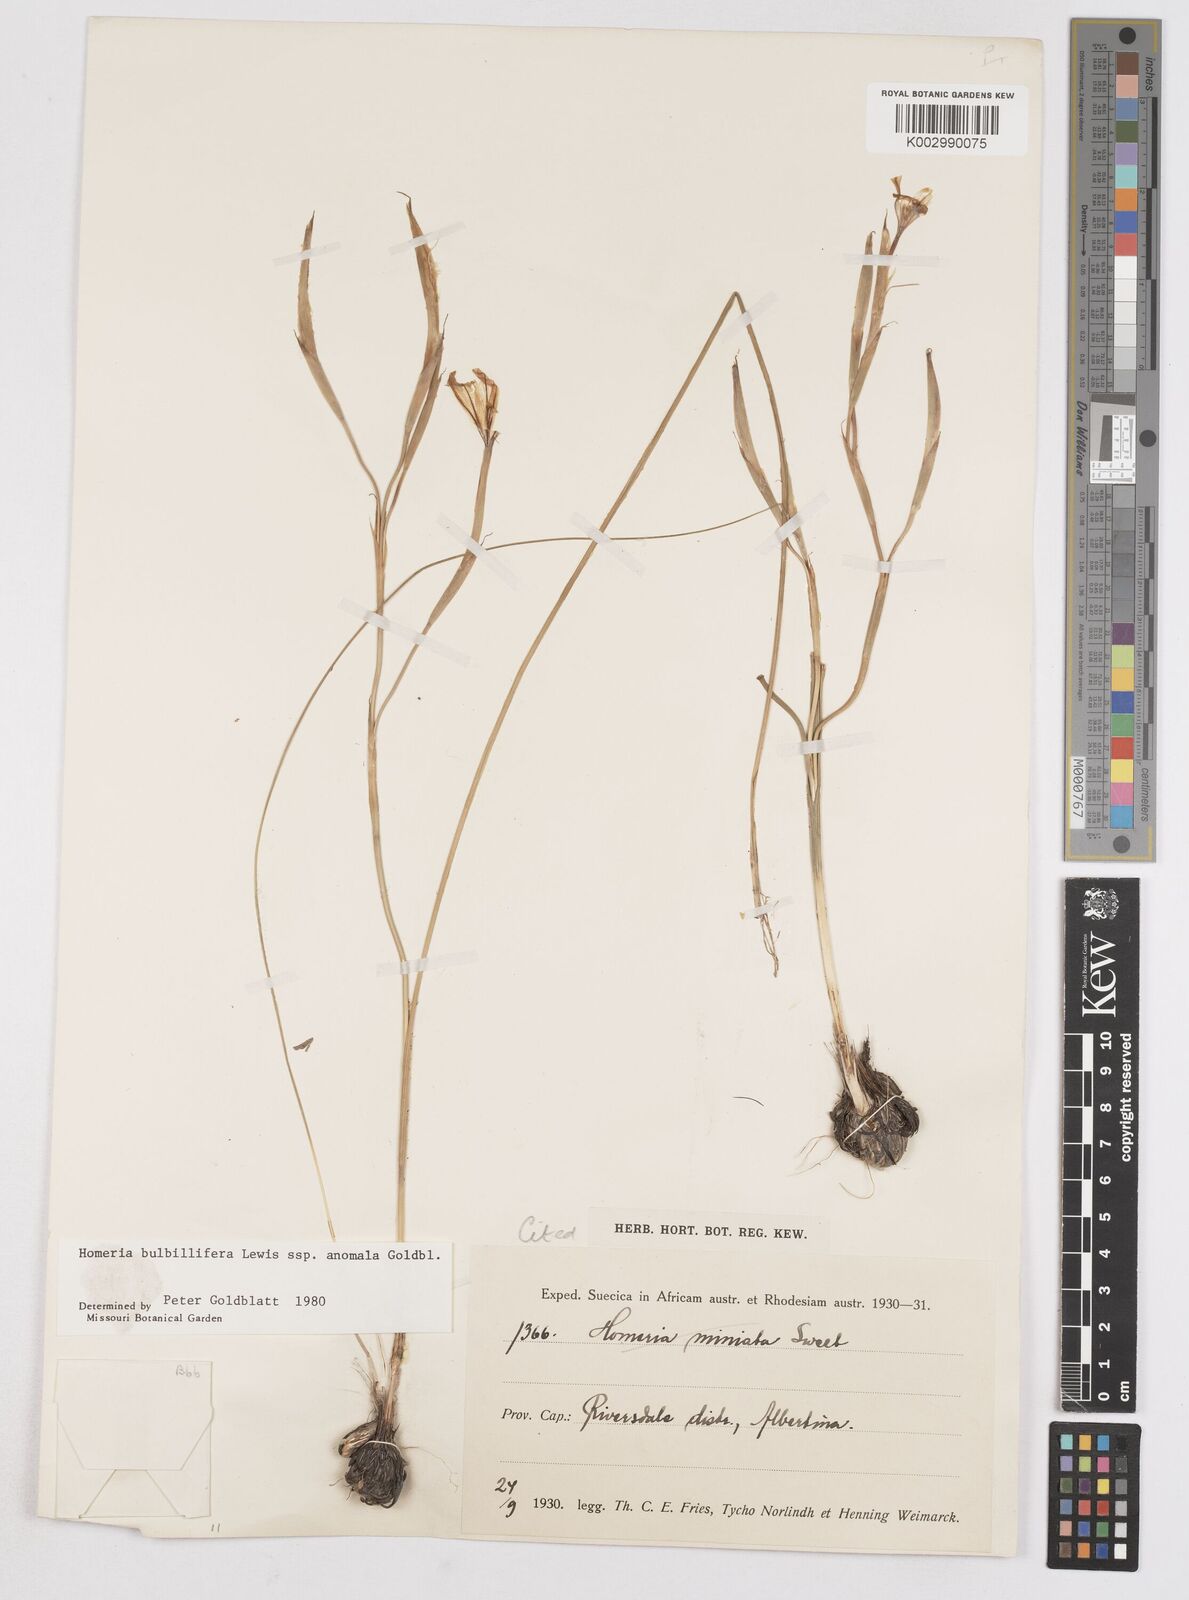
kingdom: Plantae
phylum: Tracheophyta
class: Liliopsida
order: Asparagales
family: Iridaceae
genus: Moraea
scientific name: Moraea bulbillifera
